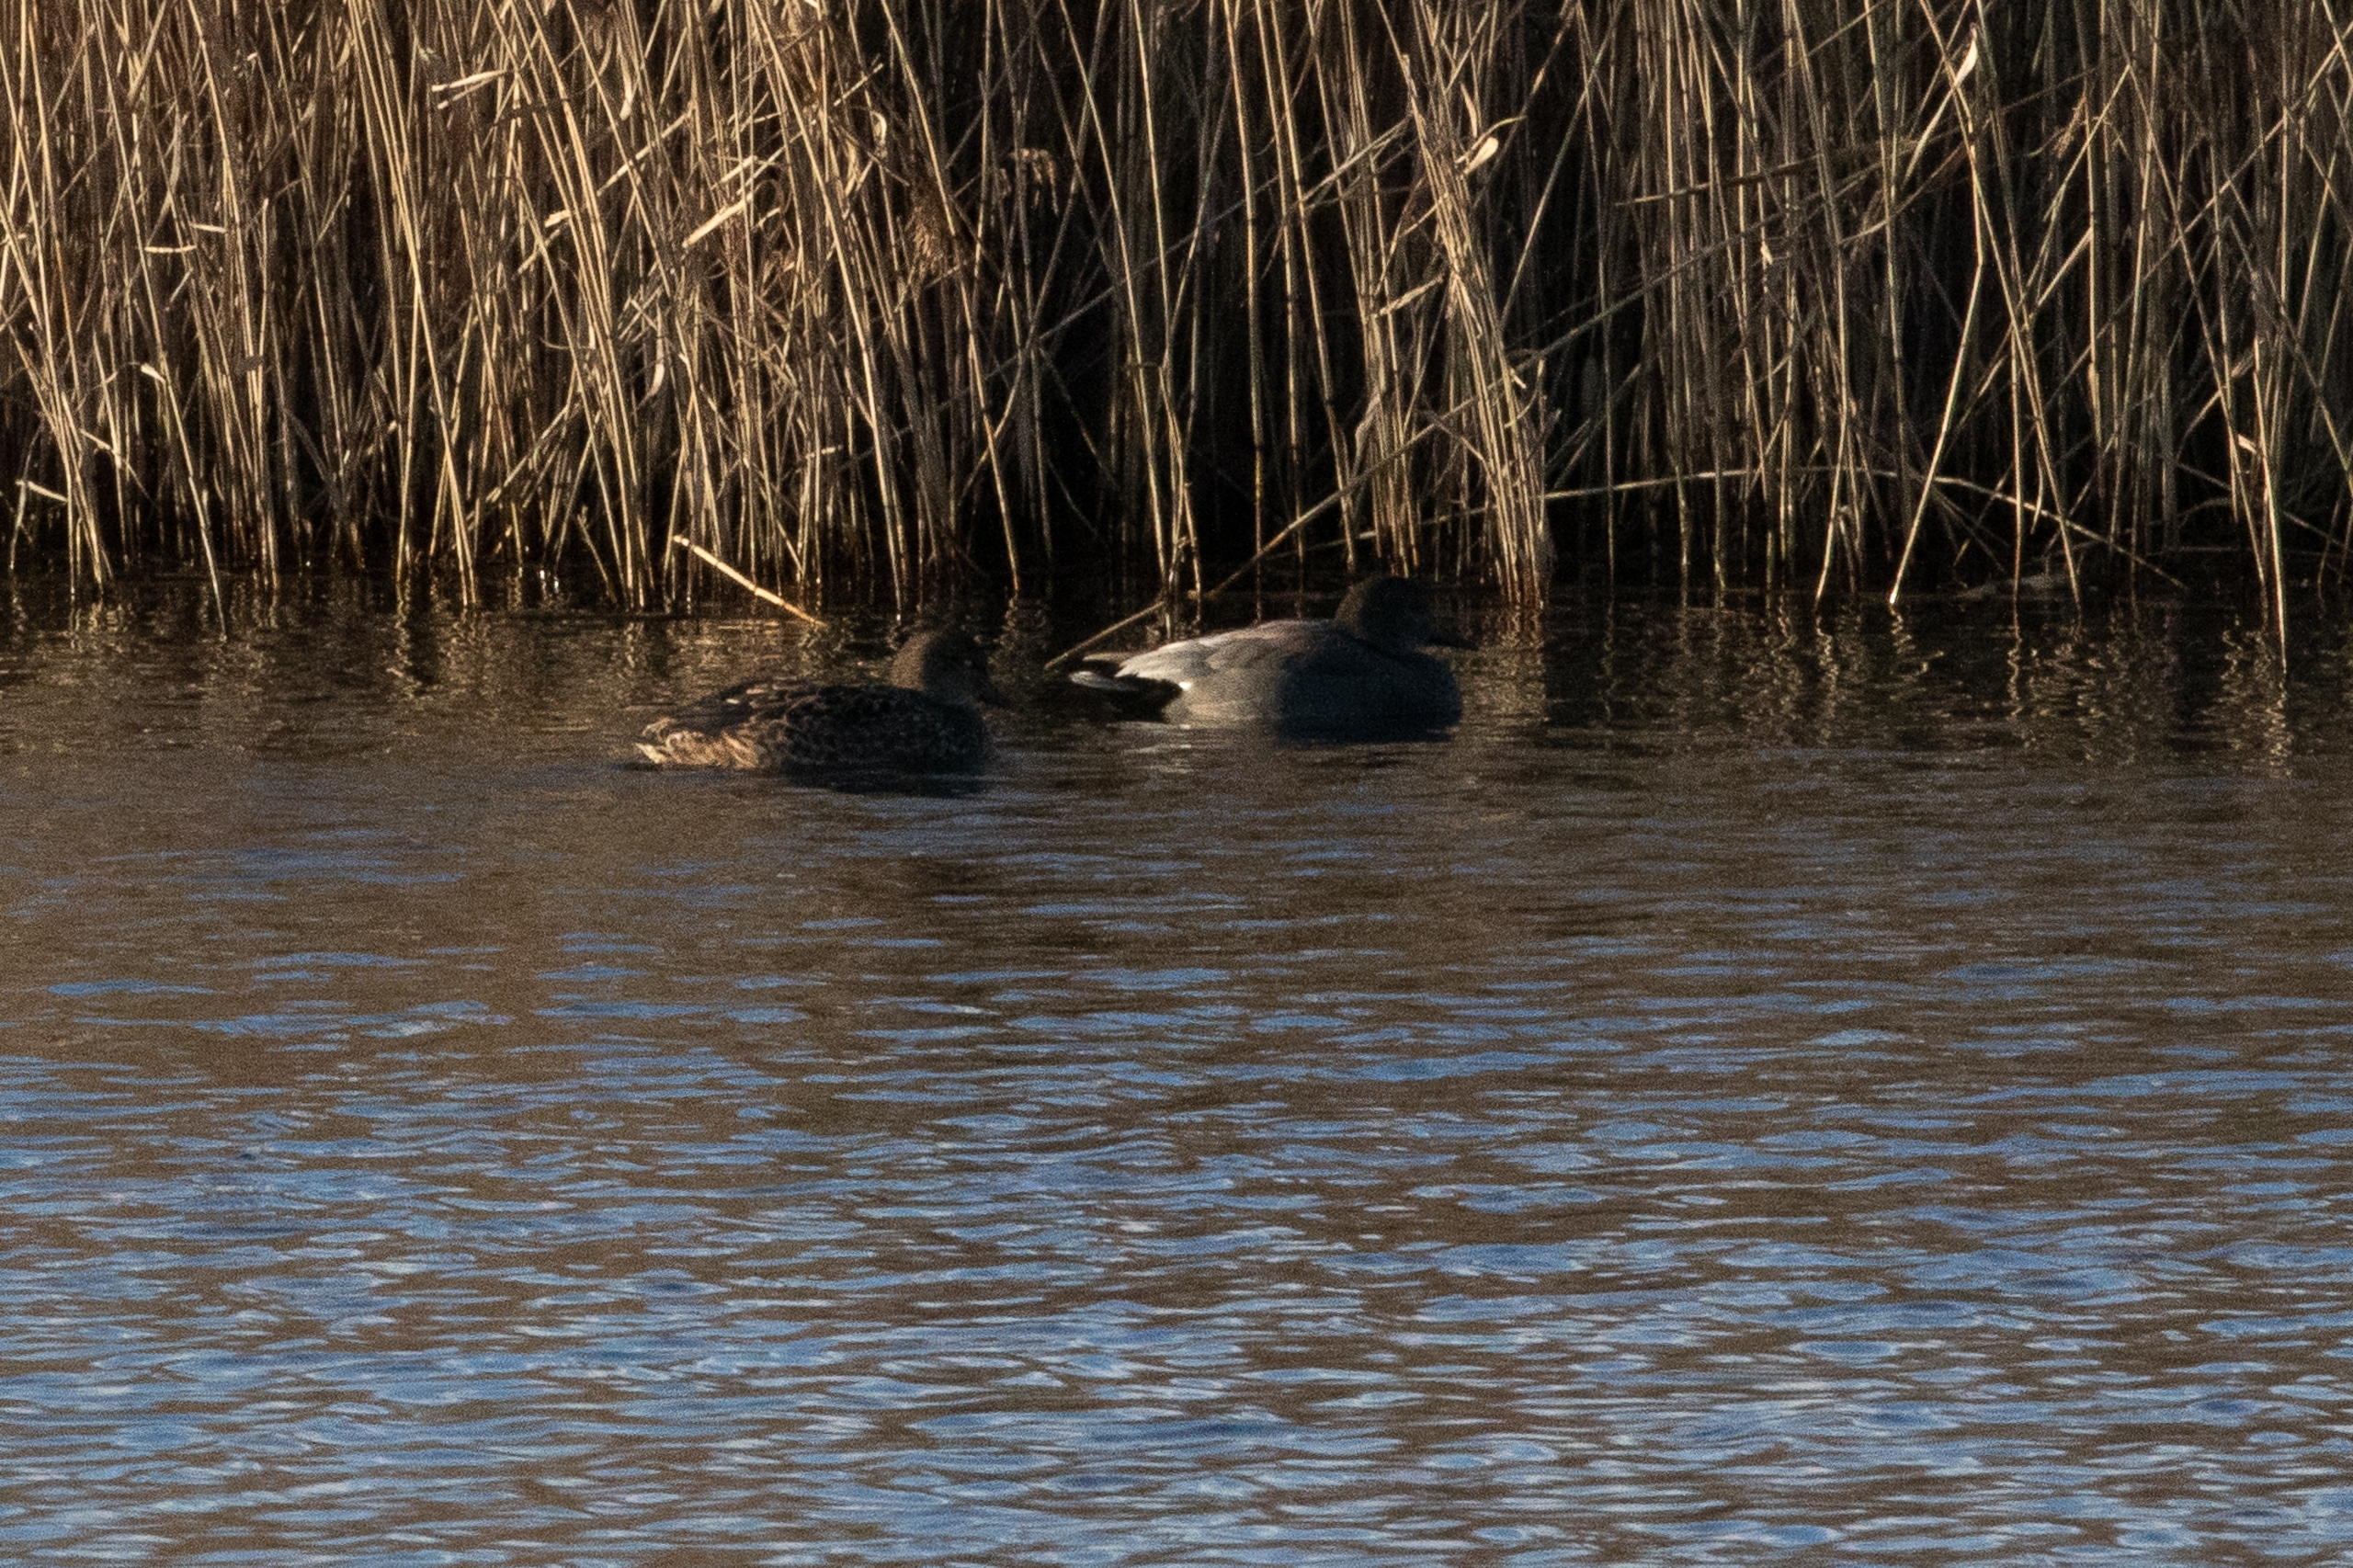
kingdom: Animalia
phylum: Chordata
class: Aves
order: Anseriformes
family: Anatidae
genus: Mareca
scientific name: Mareca strepera
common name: Knarand
